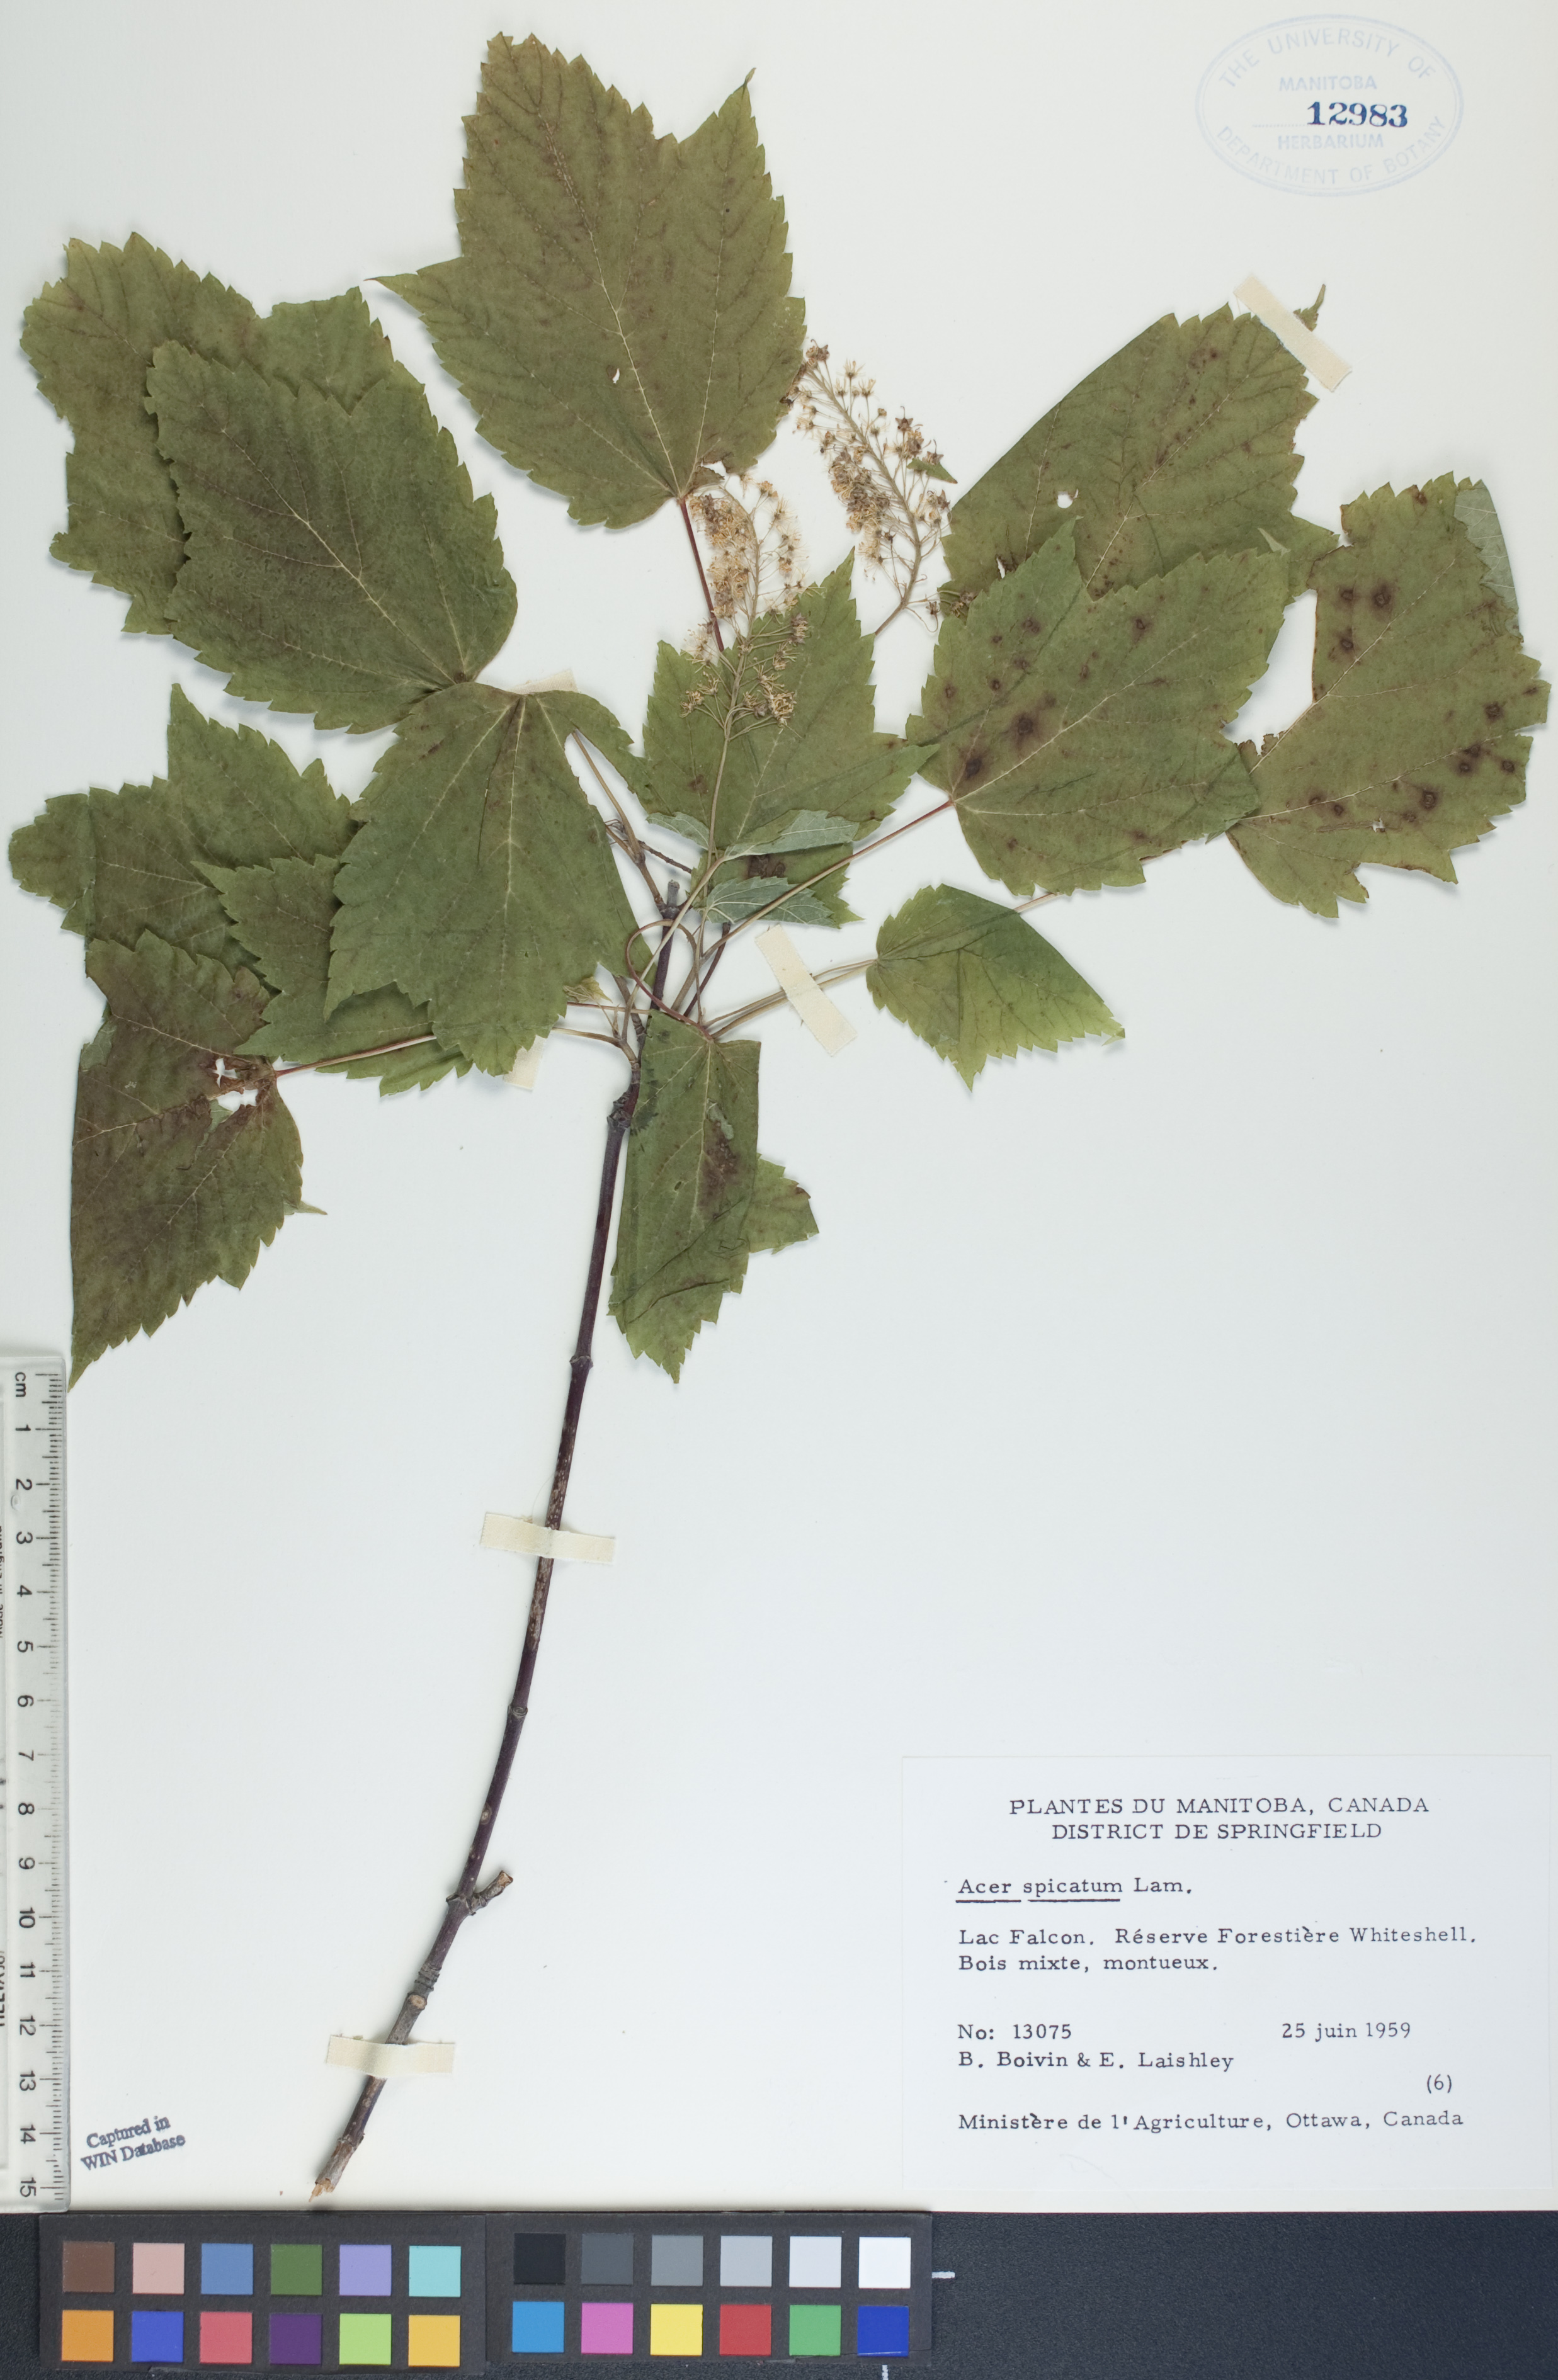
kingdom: Plantae
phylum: Tracheophyta
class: Magnoliopsida
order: Sapindales
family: Sapindaceae
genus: Acer
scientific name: Acer spicatum
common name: Mountain maple
